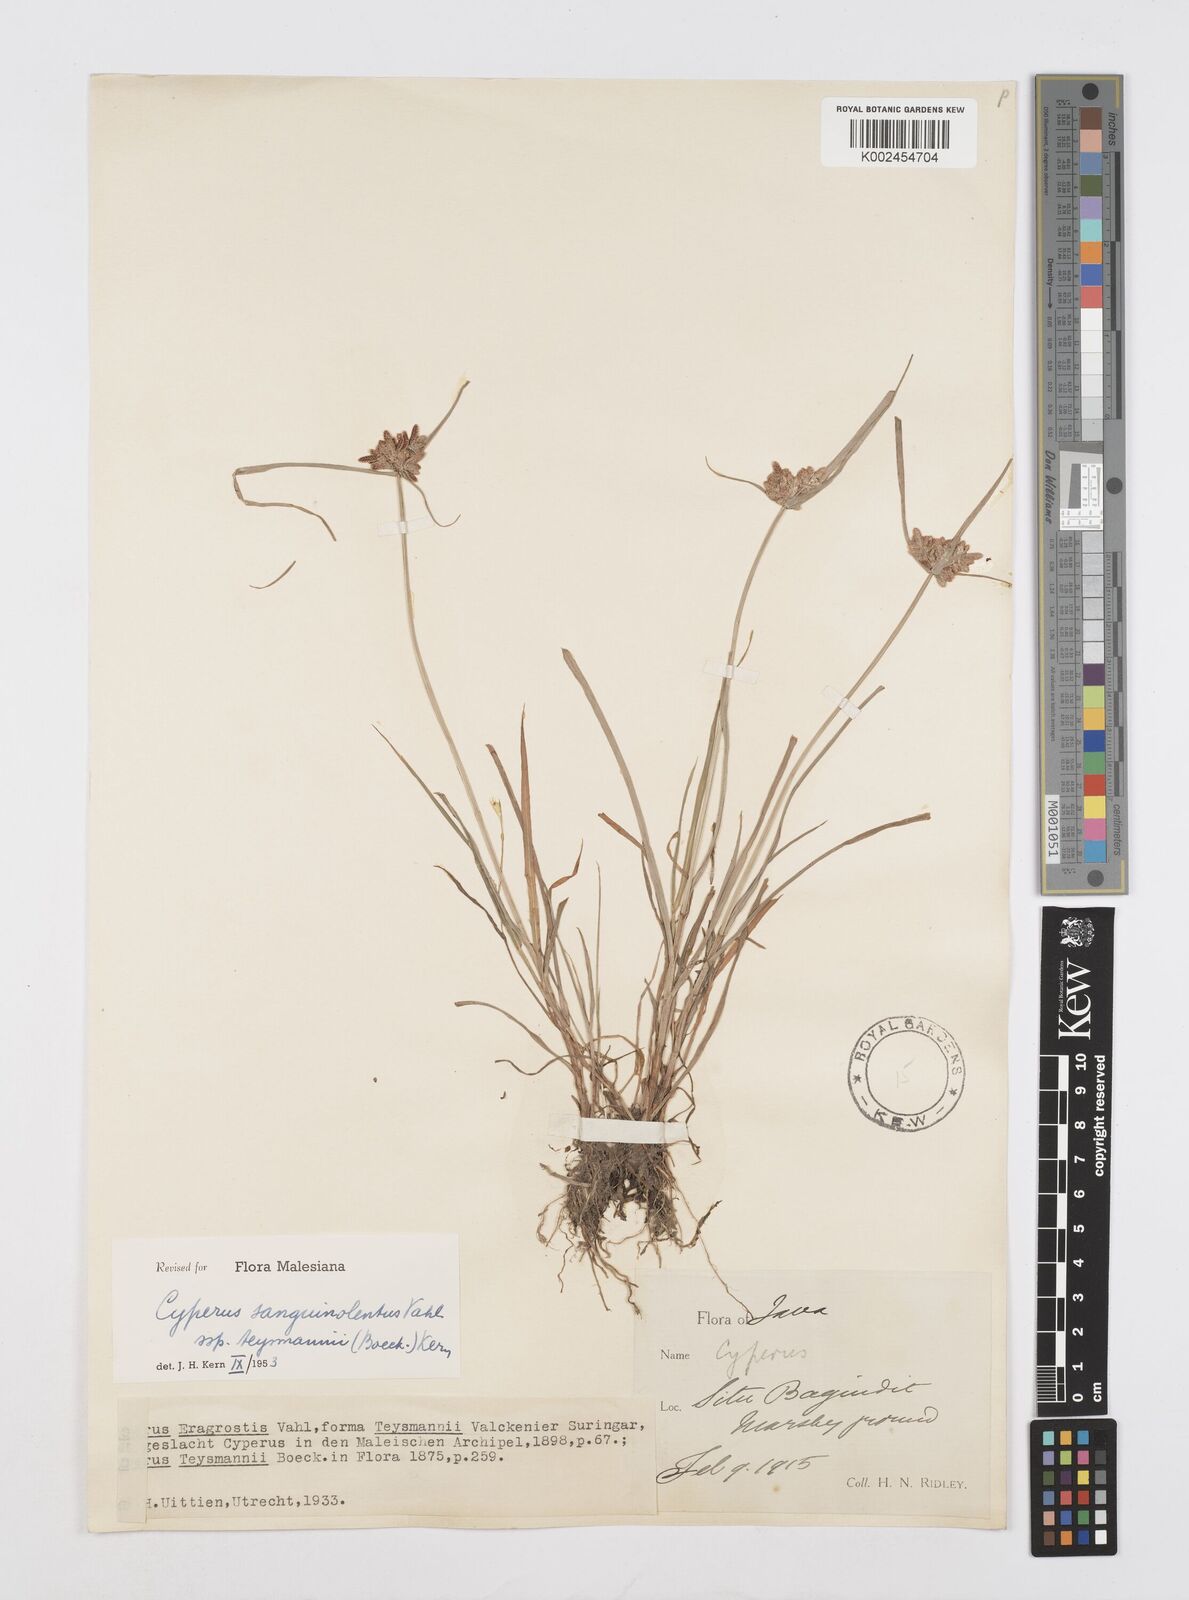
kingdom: Plantae
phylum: Tracheophyta
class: Liliopsida
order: Poales
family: Cyperaceae
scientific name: Cyperaceae
